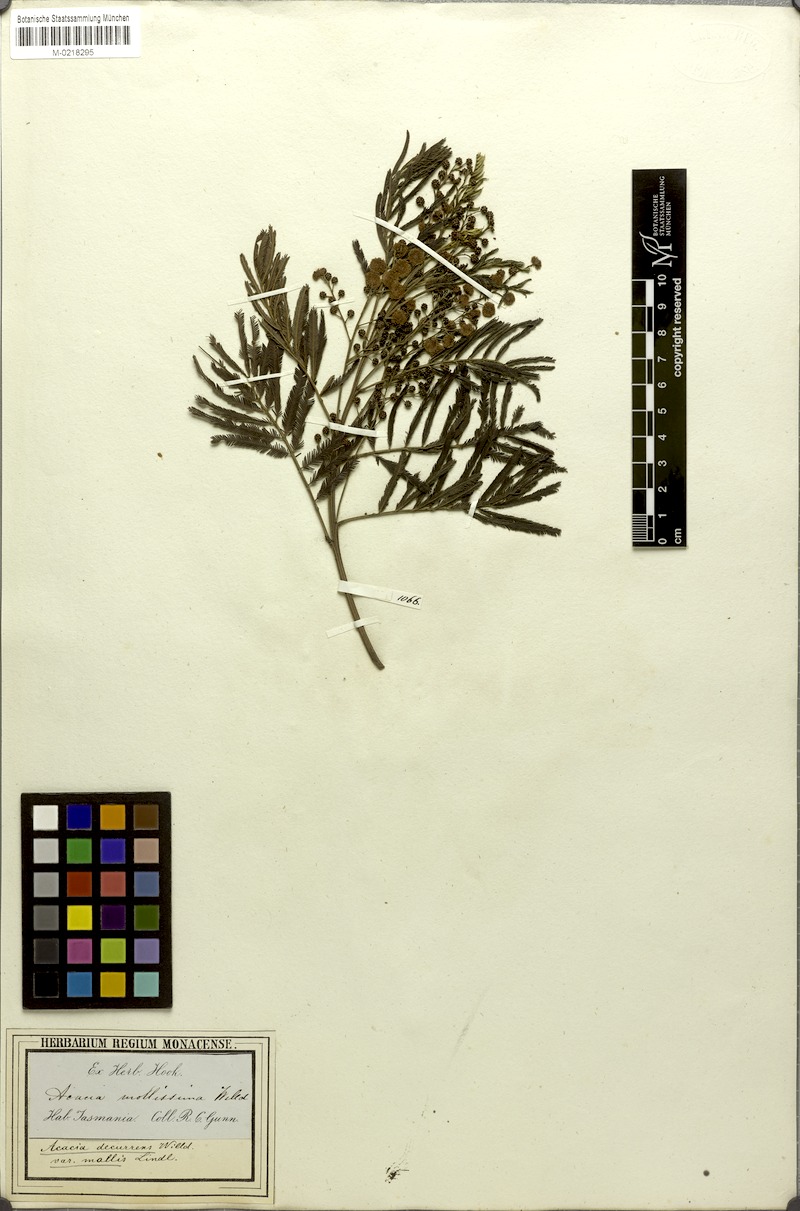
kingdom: Plantae
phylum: Tracheophyta
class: Magnoliopsida
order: Fabales
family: Fabaceae
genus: Acacia
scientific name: Acacia mearnsii
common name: Black wattle
